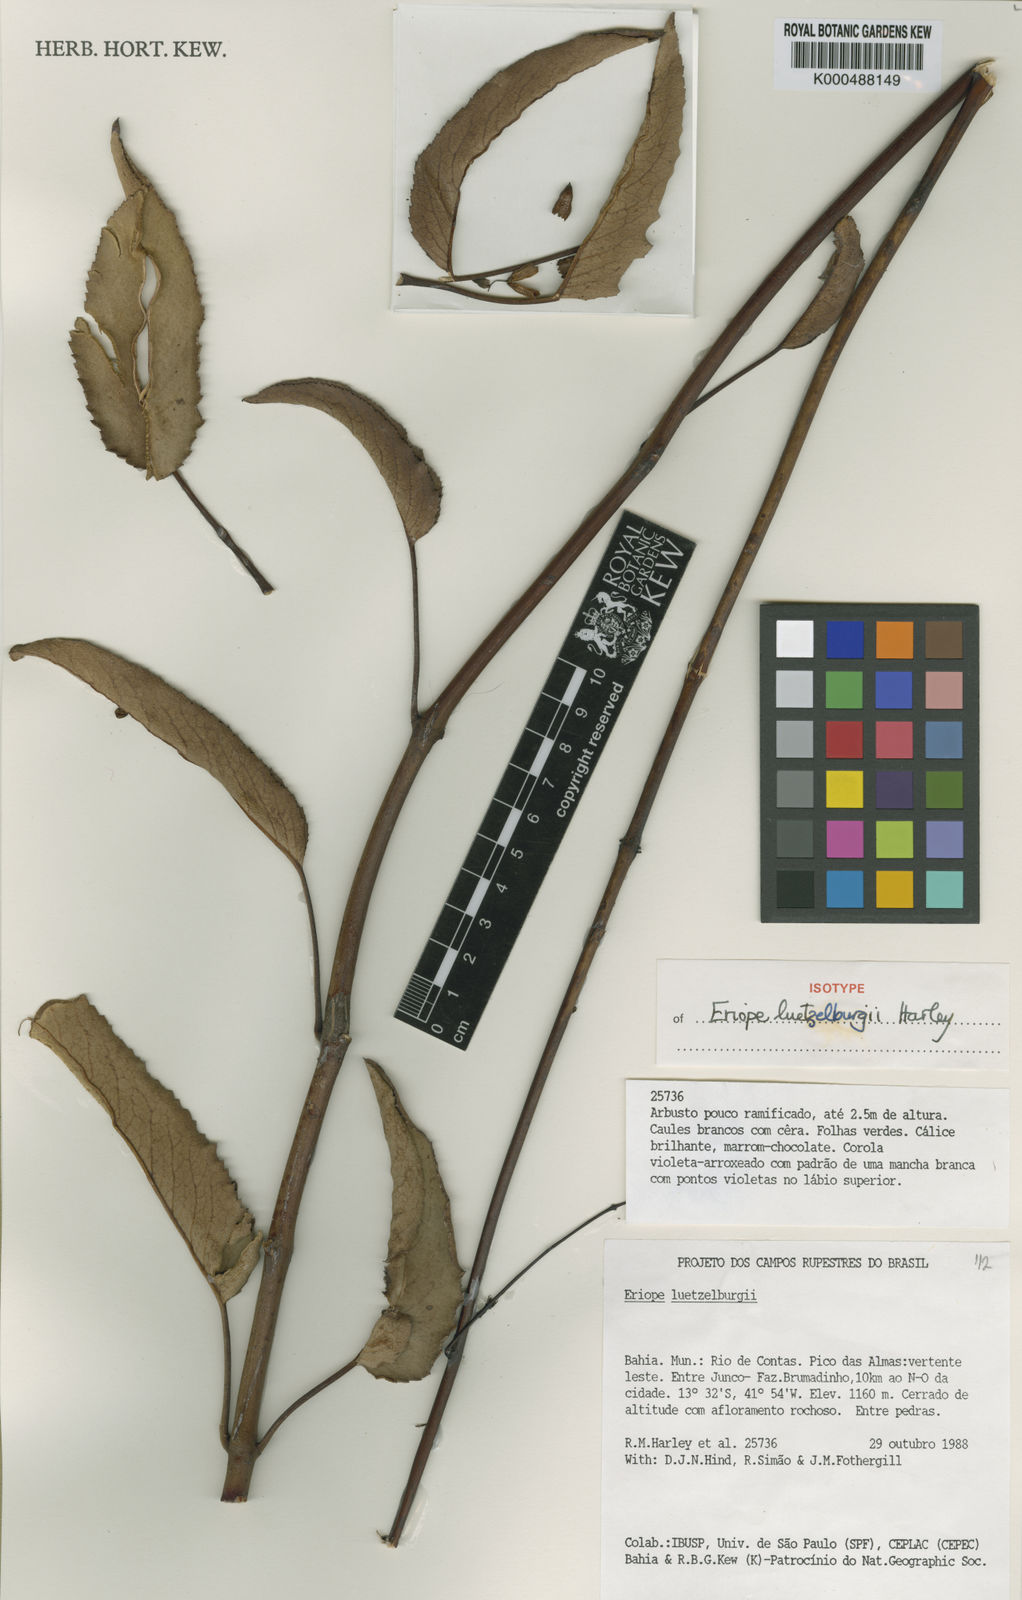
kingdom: Plantae
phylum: Tracheophyta
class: Magnoliopsida
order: Lamiales
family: Lamiaceae
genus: Eriope
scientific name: Eriope luetzelburgii
